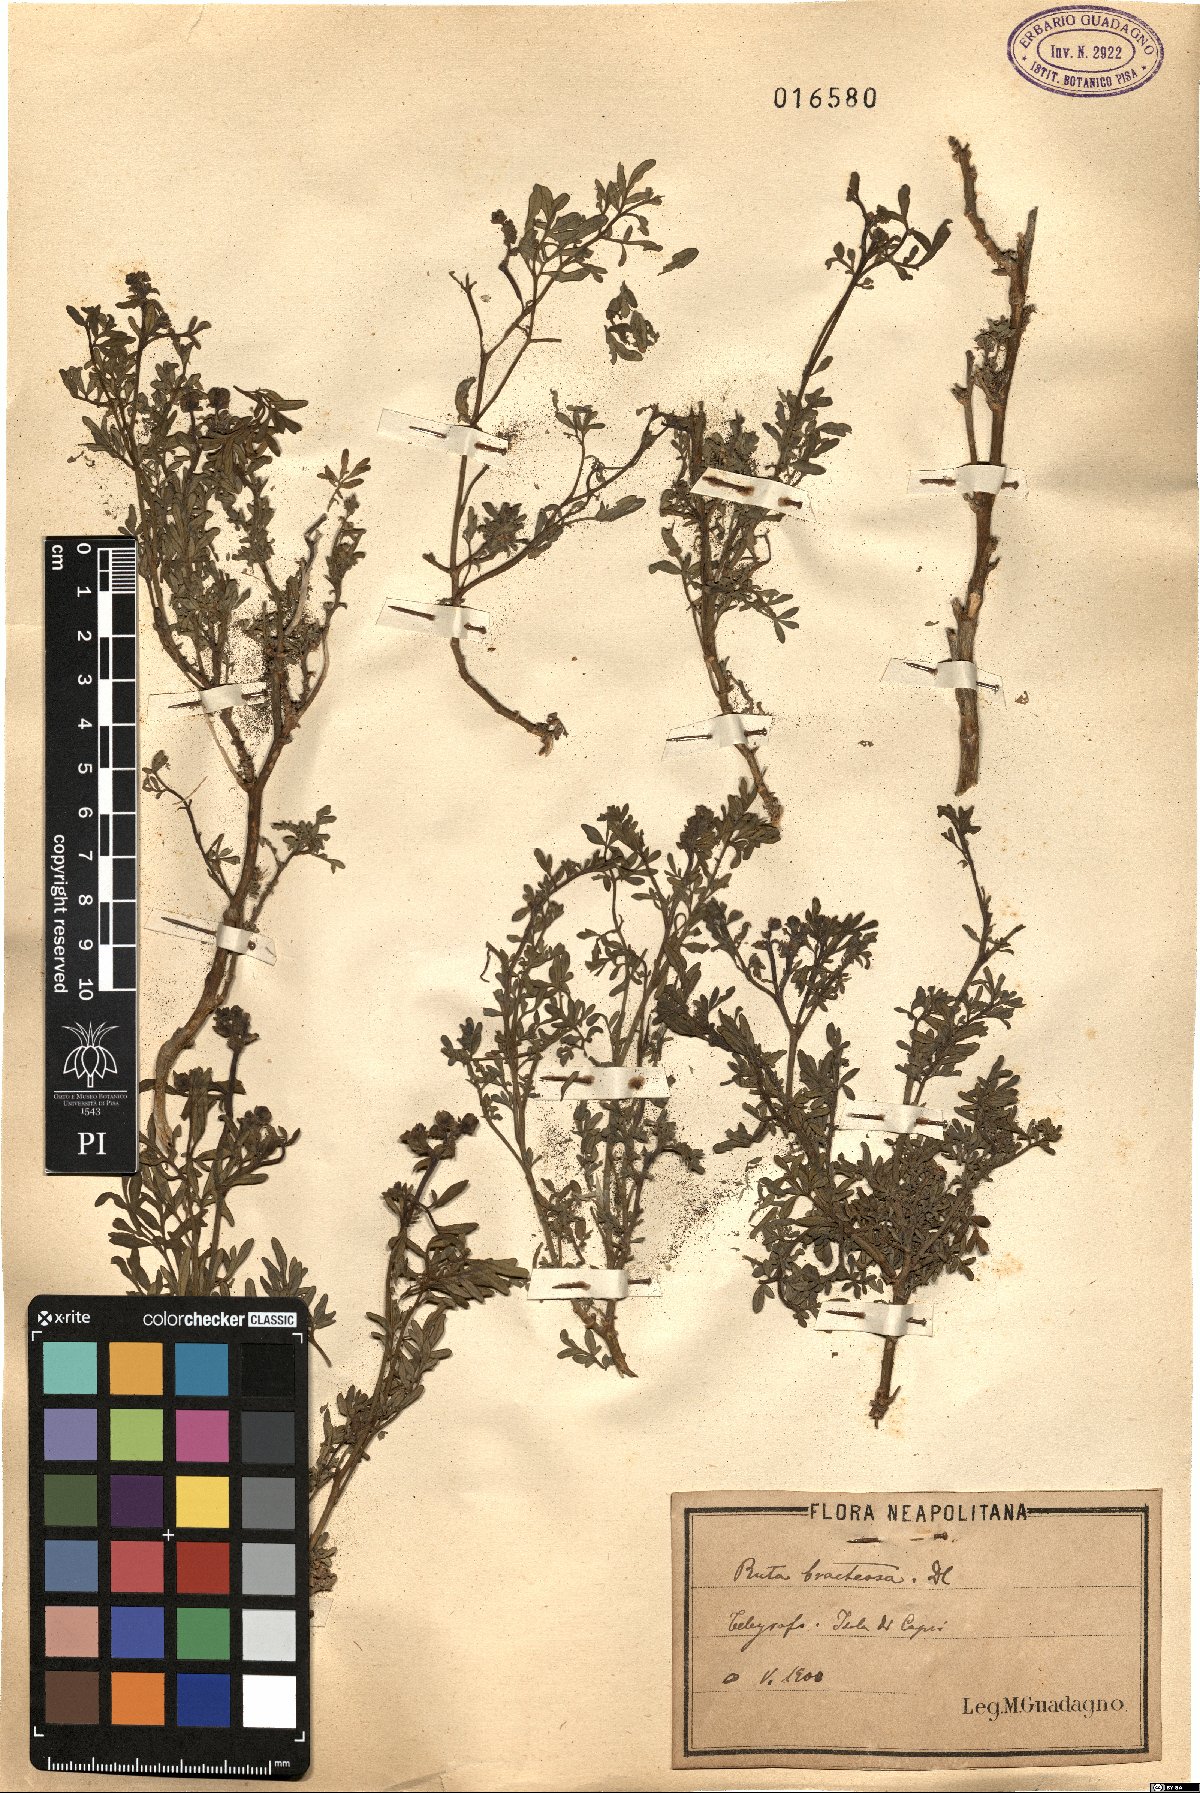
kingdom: Plantae
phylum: Tracheophyta
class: Magnoliopsida
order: Sapindales
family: Rutaceae
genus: Ruta
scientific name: Ruta chalepensis
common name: Fringed rue
